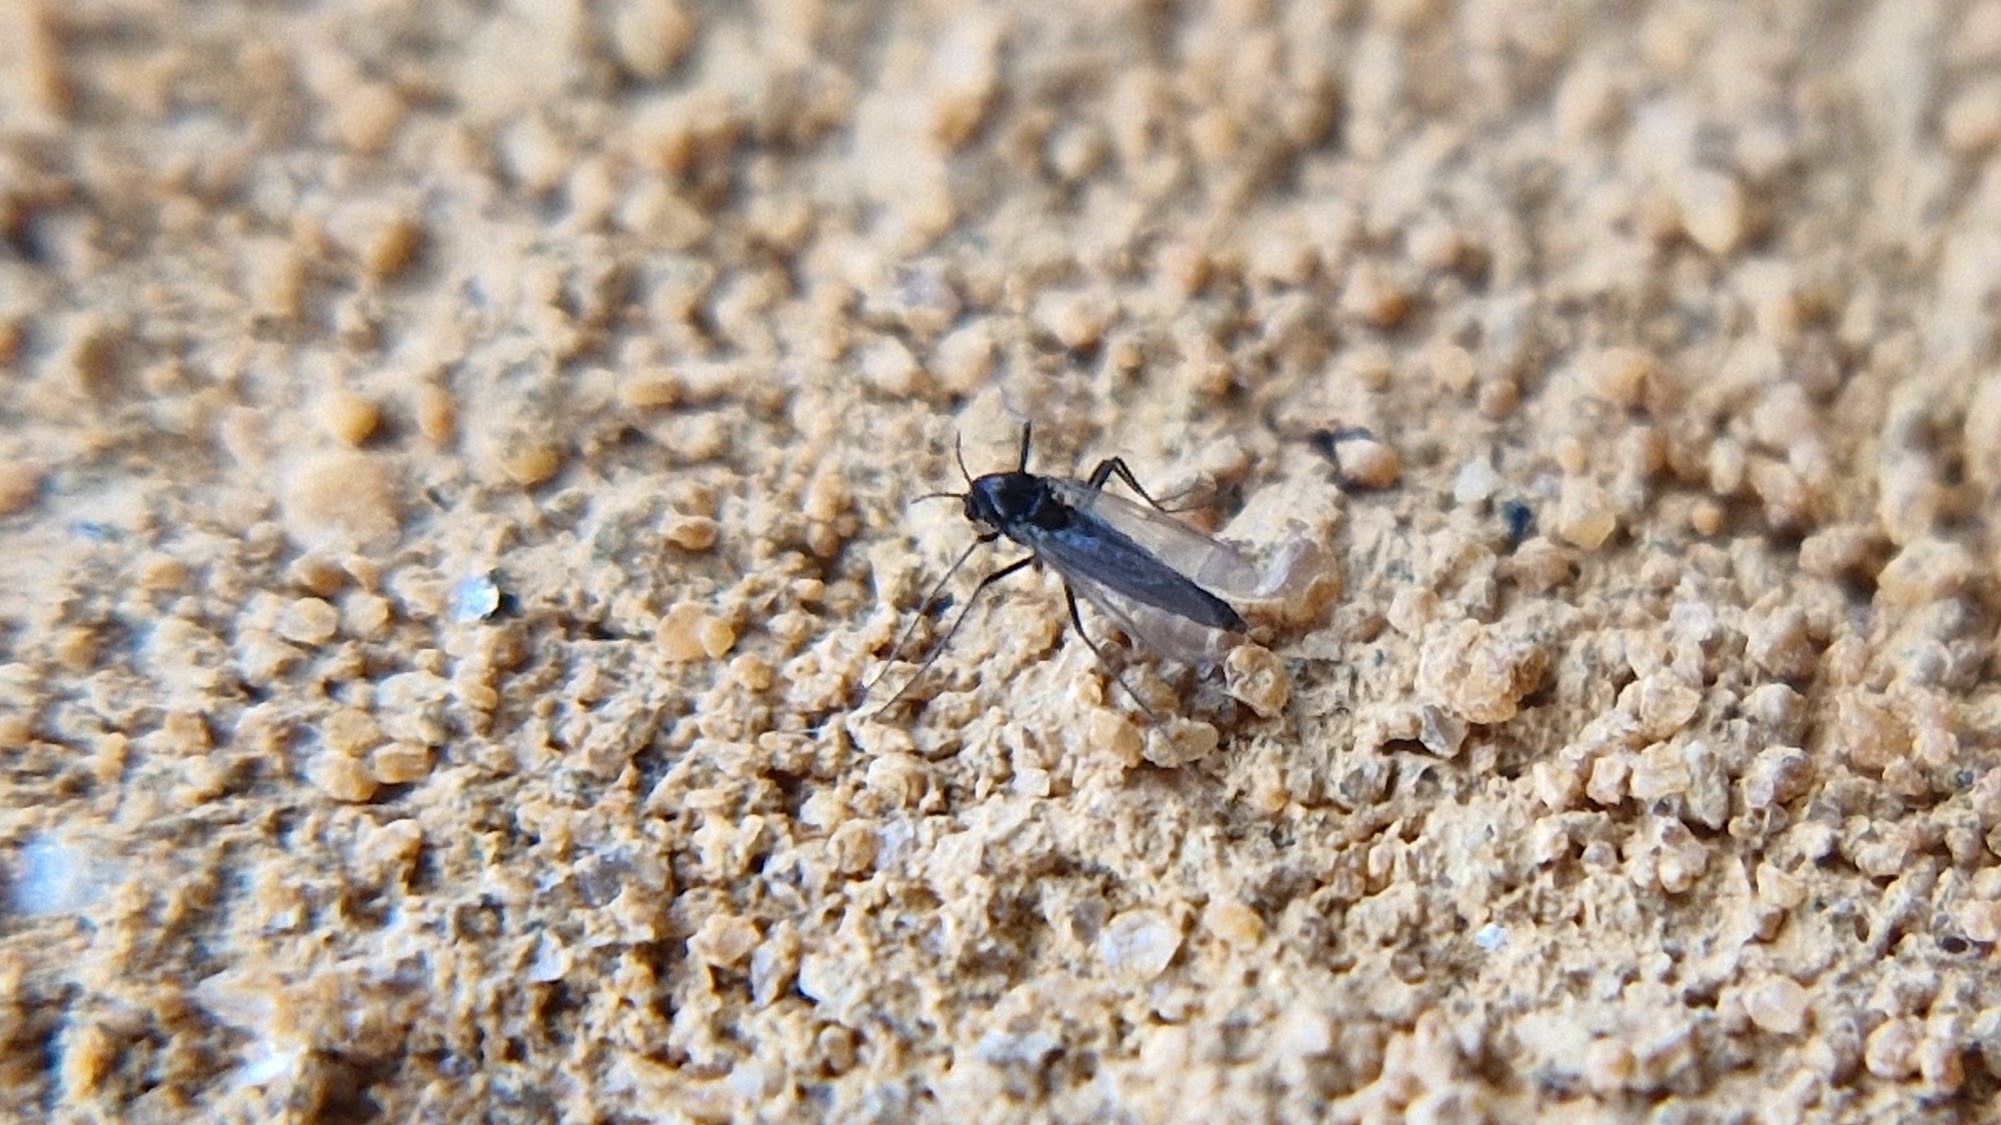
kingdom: Animalia
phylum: Arthropoda
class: Insecta
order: Diptera
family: Chironomidae
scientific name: Chironomidae
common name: Dansemyg
